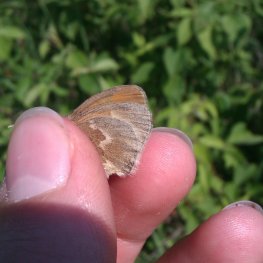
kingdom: Animalia
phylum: Arthropoda
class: Insecta
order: Lepidoptera
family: Nymphalidae
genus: Coenonympha
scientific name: Coenonympha tullia
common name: Large Heath
